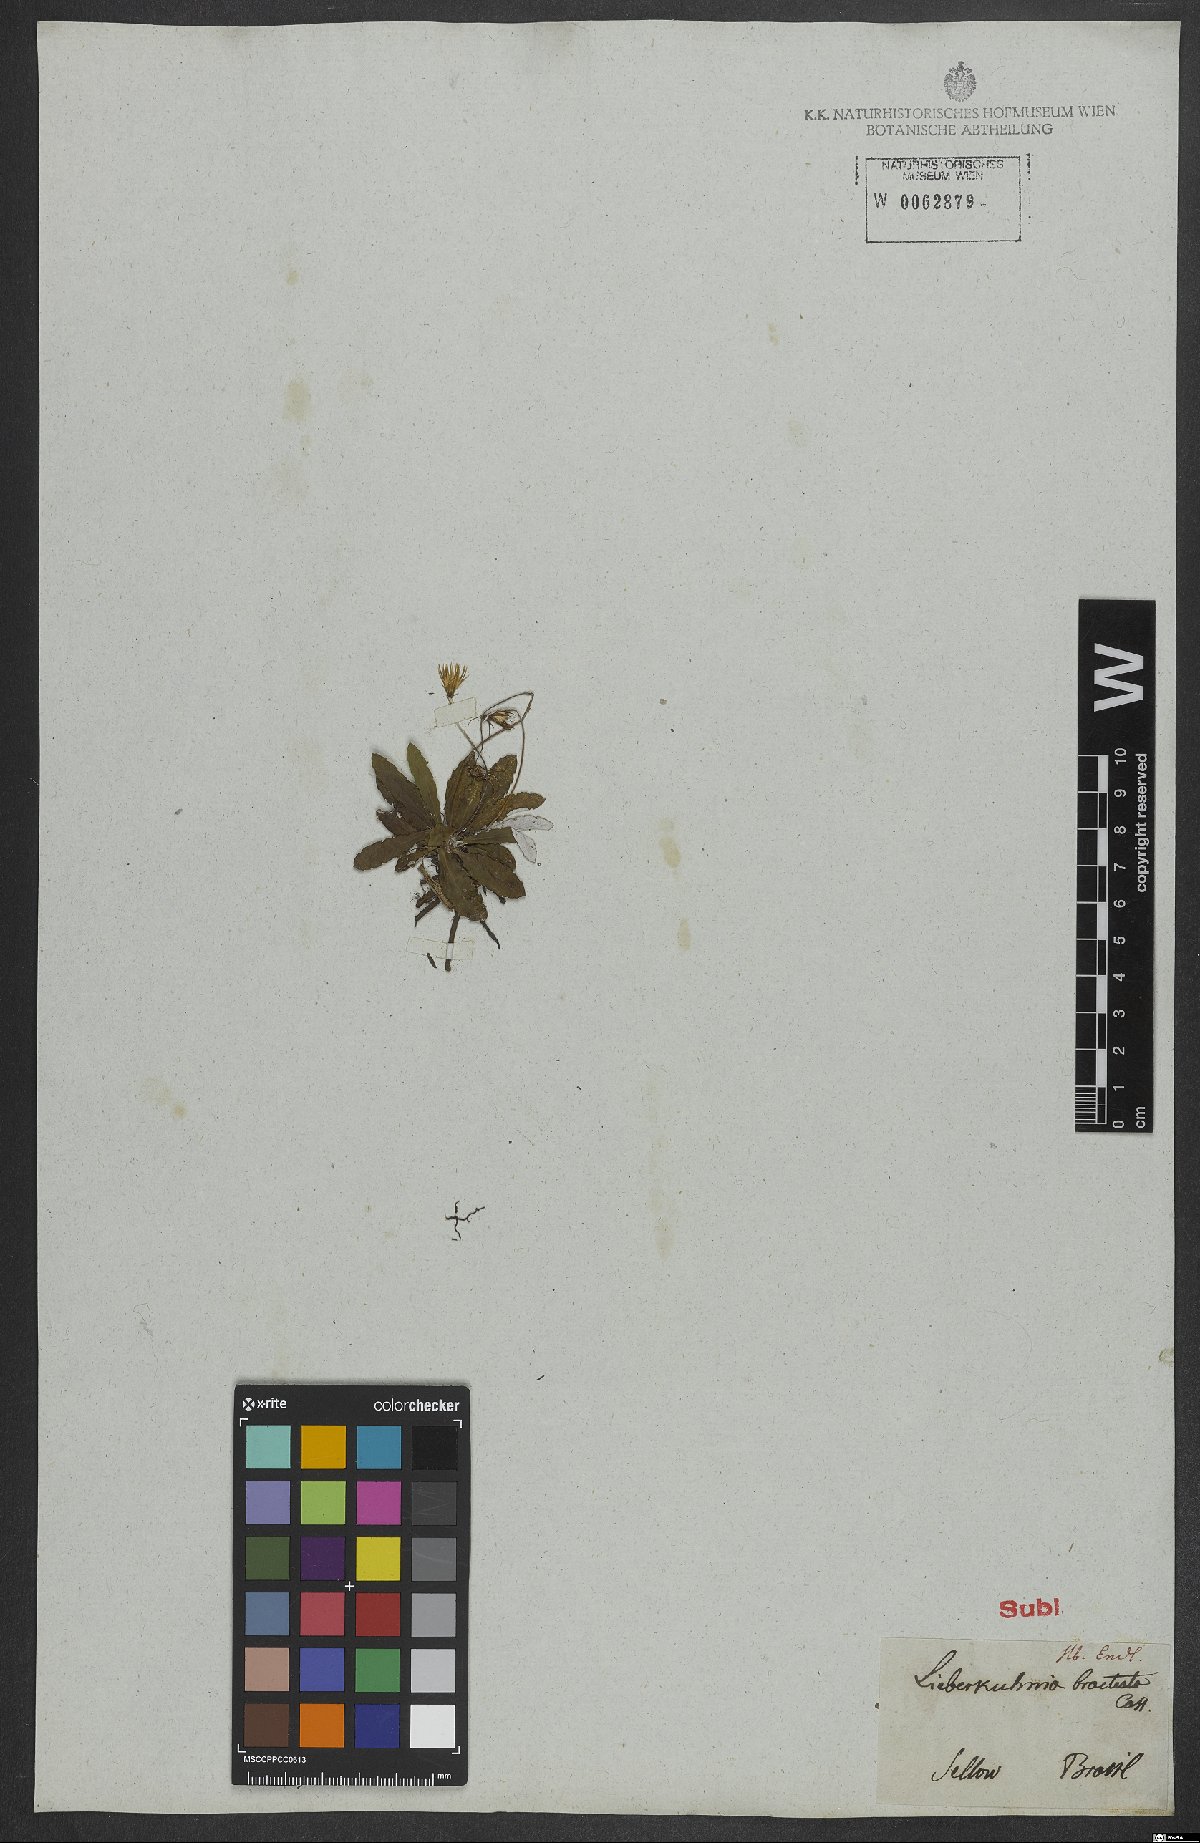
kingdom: Plantae
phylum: Tracheophyta
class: Magnoliopsida
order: Asterales
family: Asteraceae
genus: Chaptalia
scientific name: Chaptalia piloselloides
